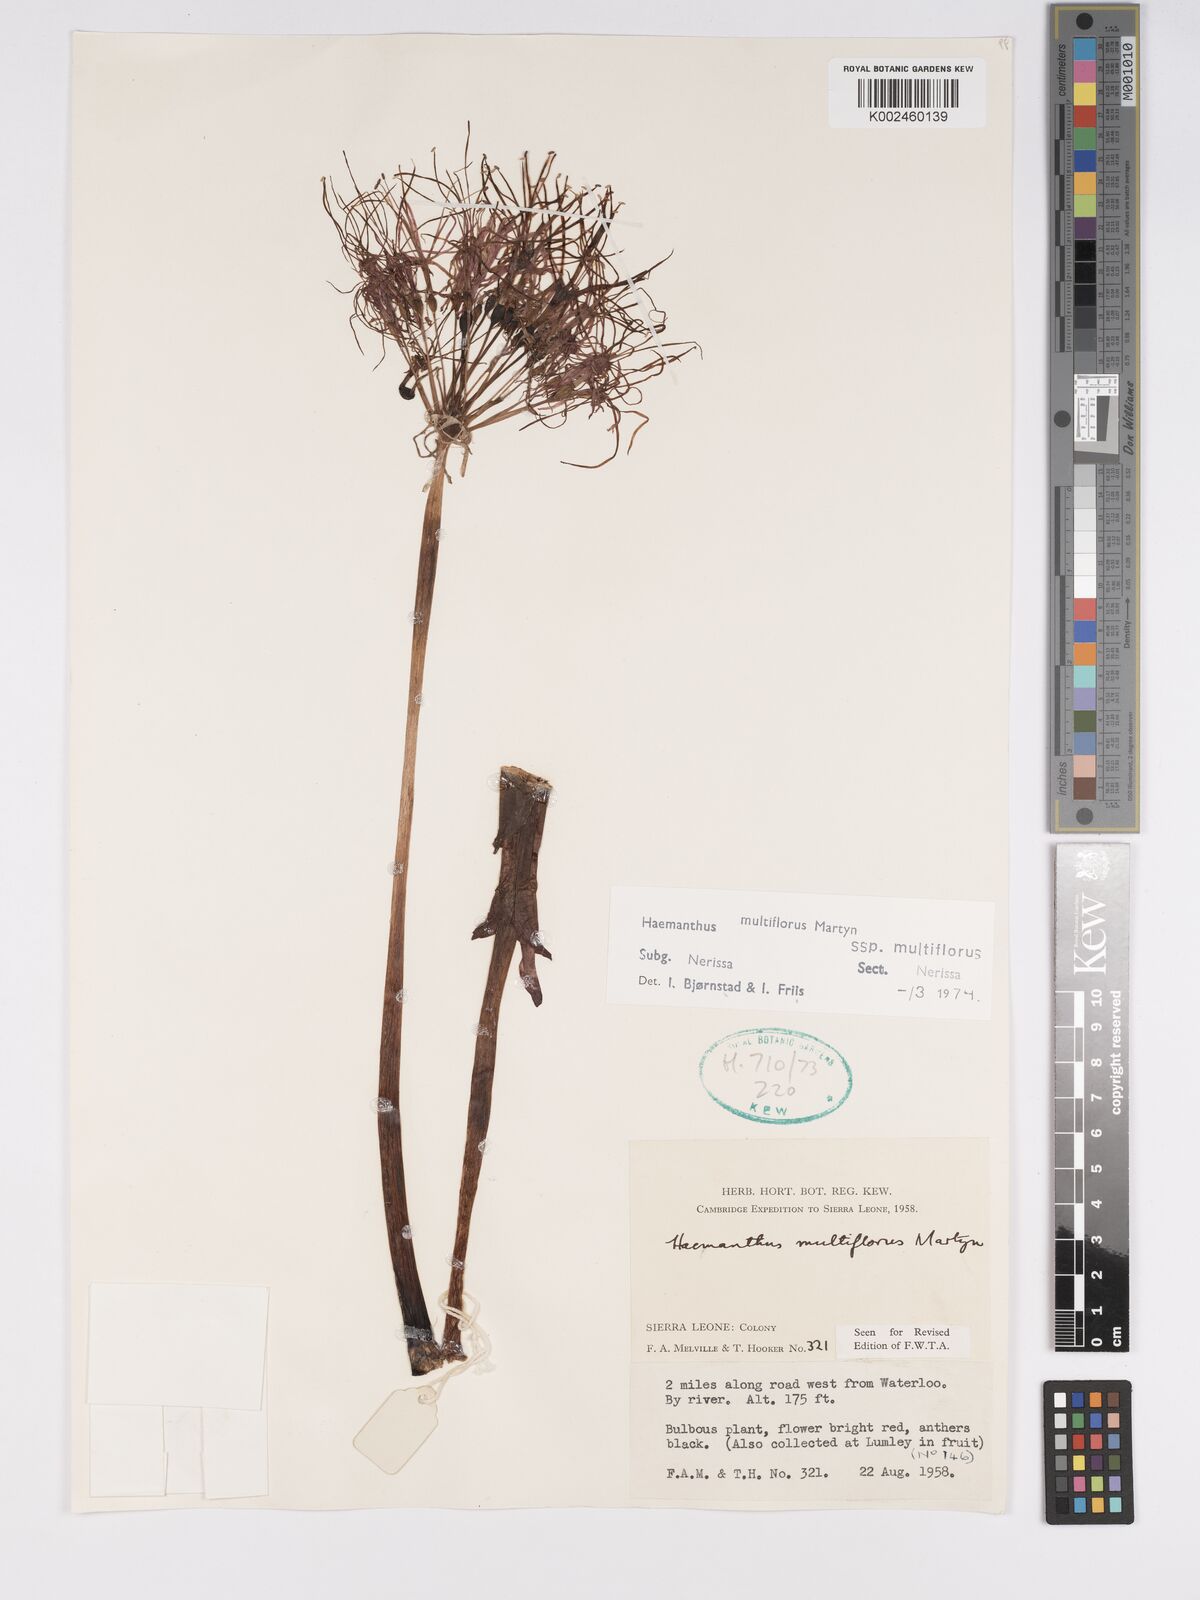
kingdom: Plantae
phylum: Tracheophyta
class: Liliopsida
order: Asparagales
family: Amaryllidaceae
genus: Scadoxus
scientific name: Scadoxus multiflorus
